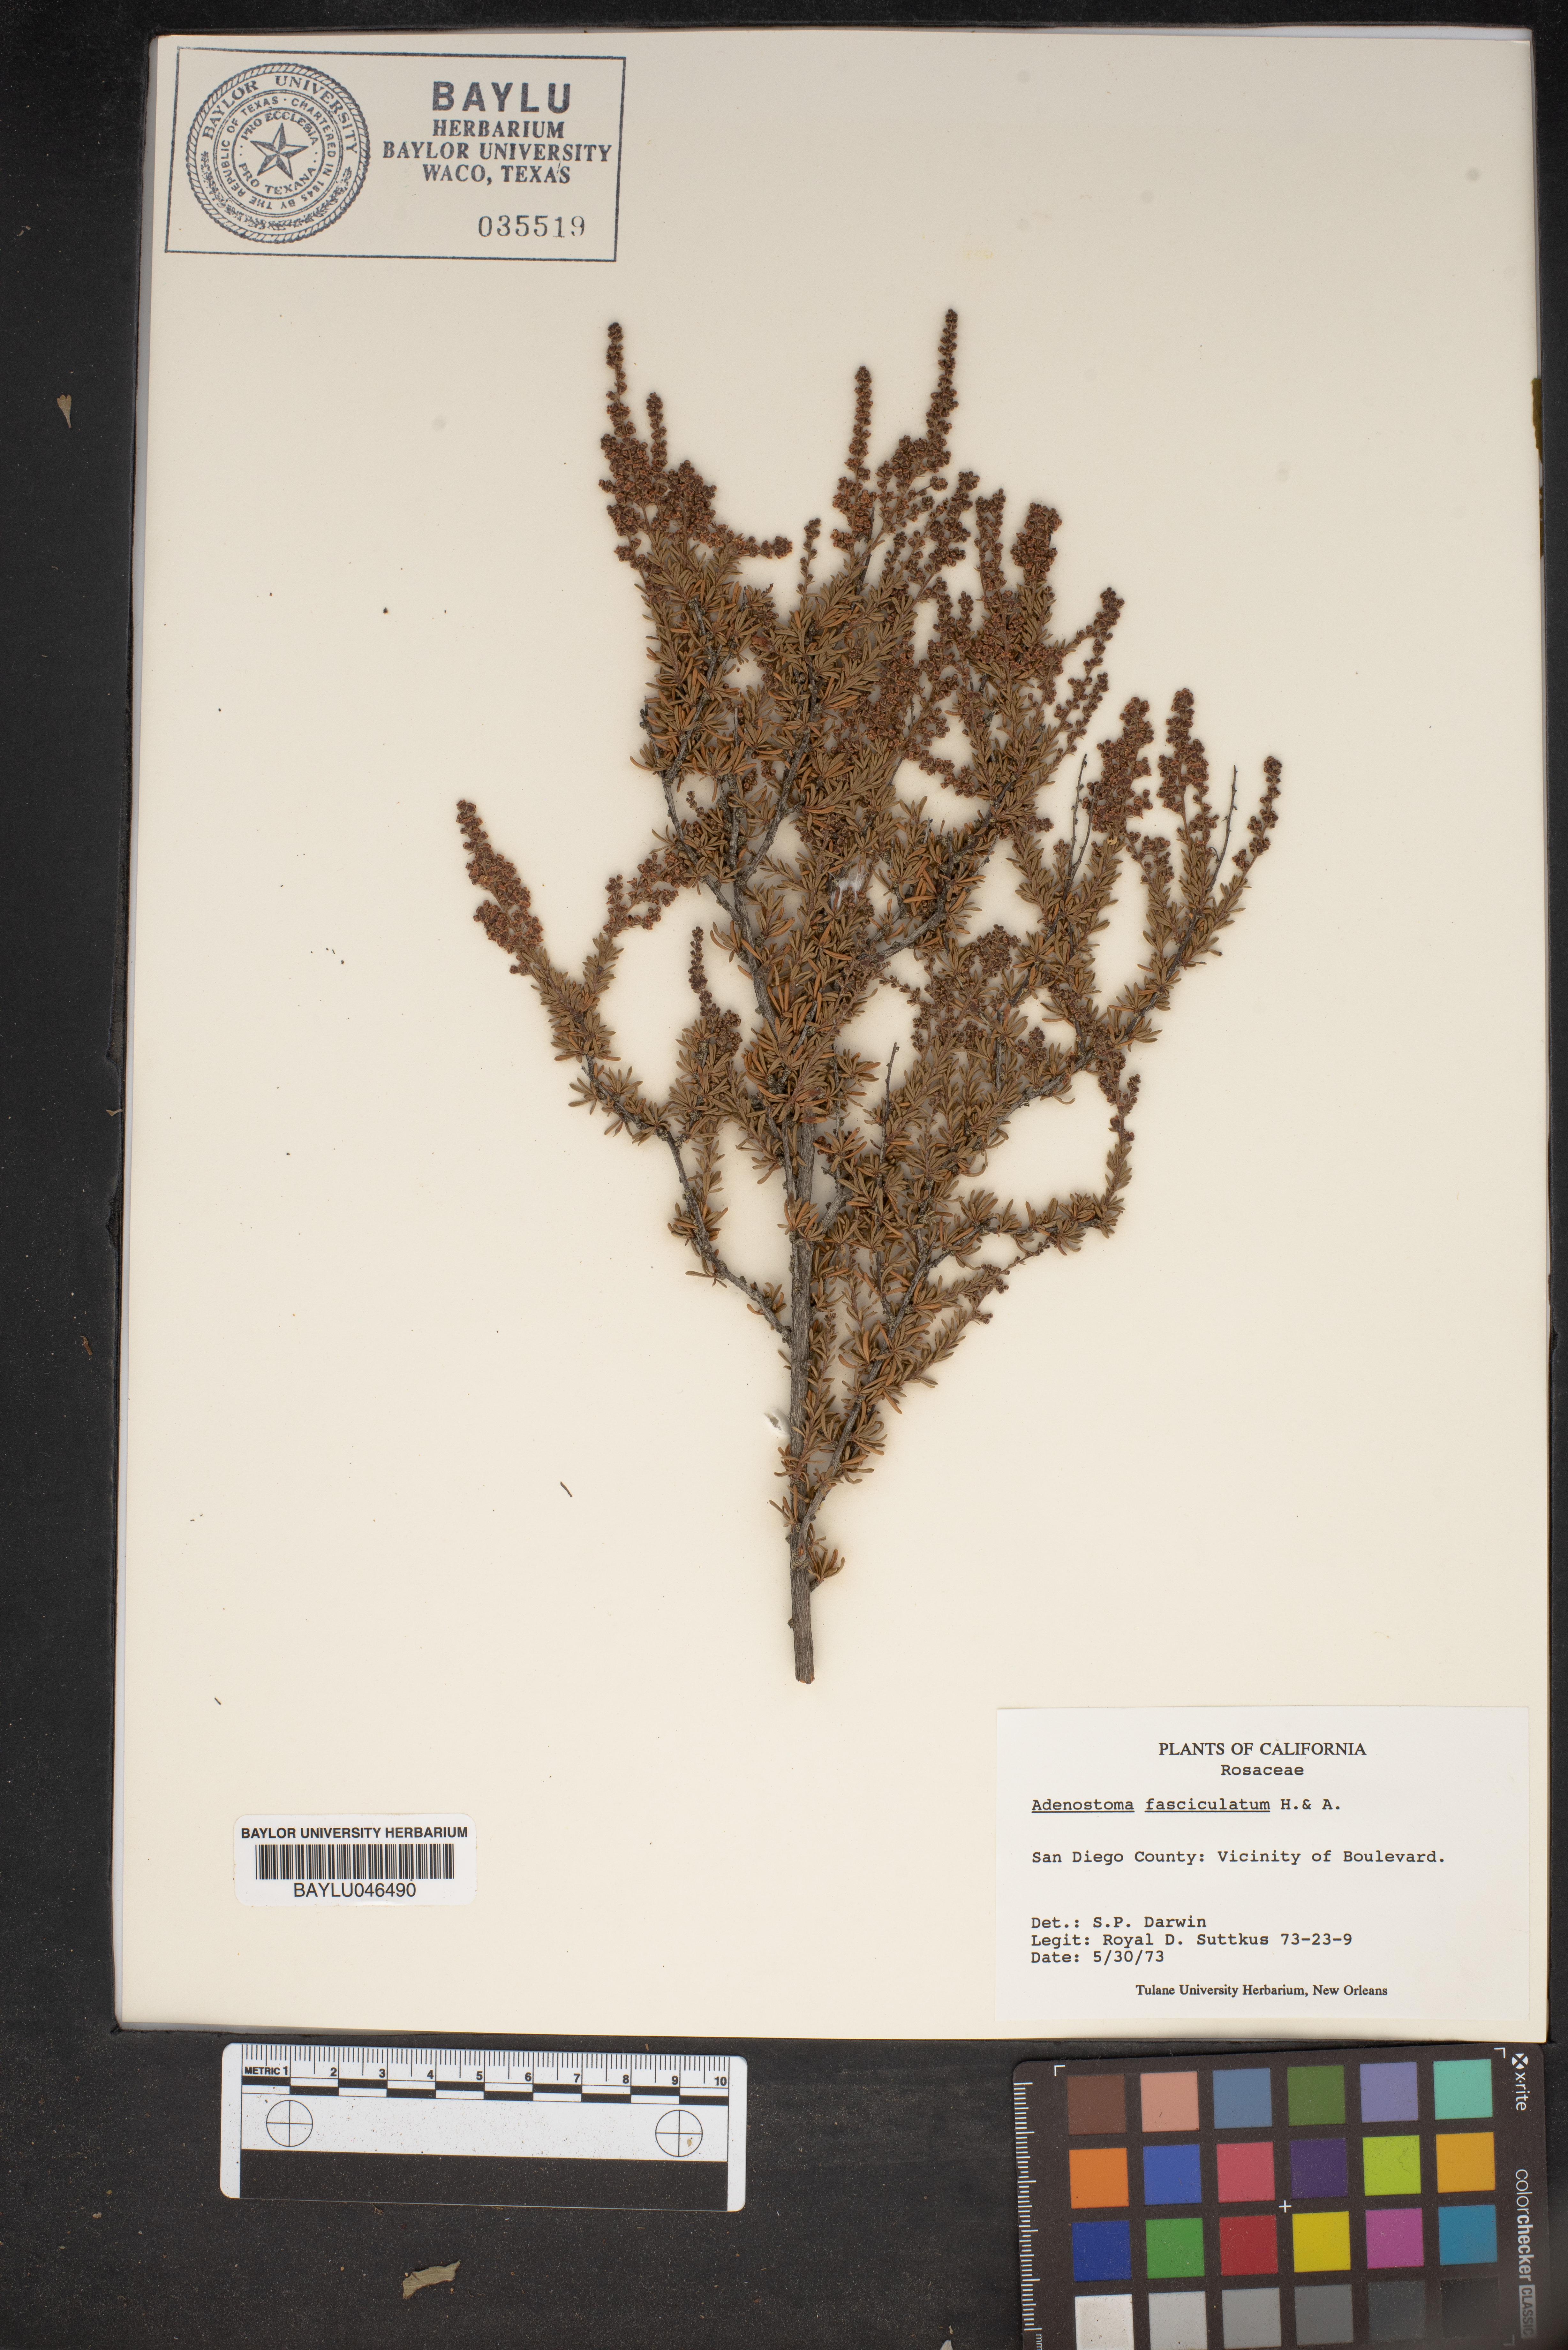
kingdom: Plantae
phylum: Tracheophyta
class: Magnoliopsida
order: Rosales
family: Rosaceae
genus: Adenostoma
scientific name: Adenostoma fasciculatum
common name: Chamise
